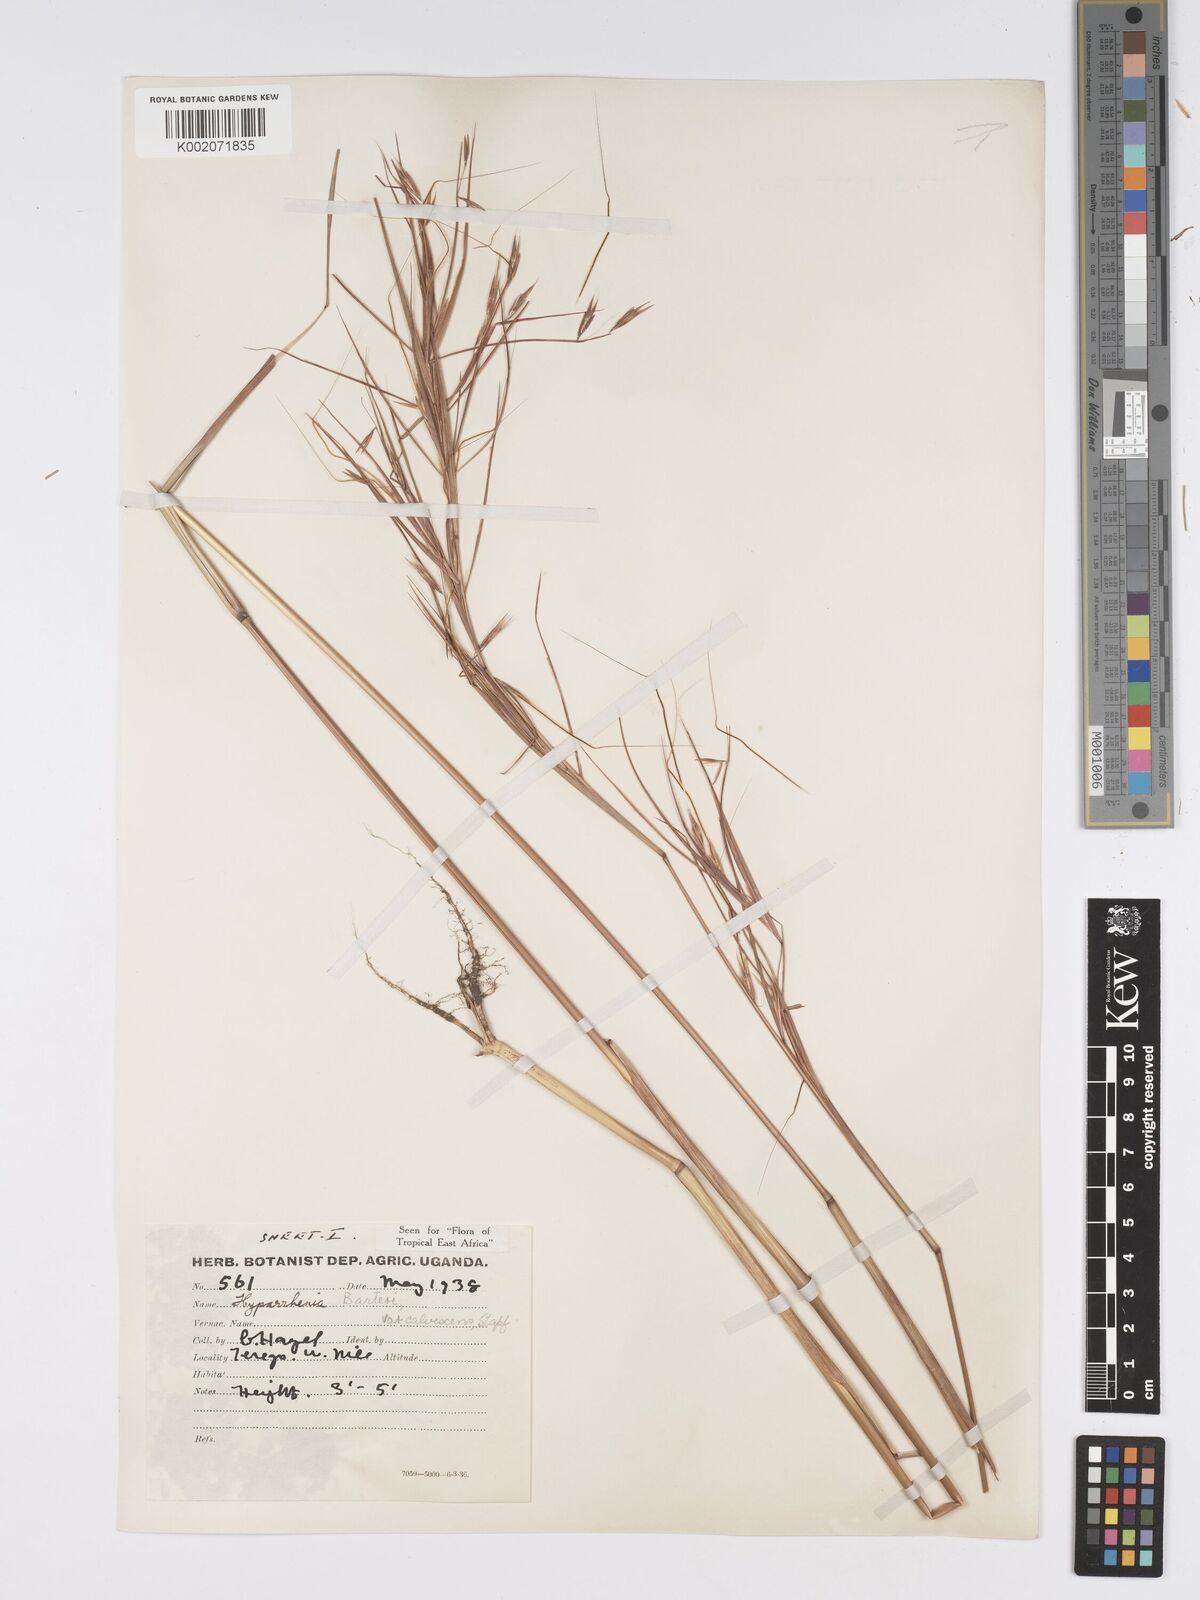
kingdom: Plantae
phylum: Tracheophyta
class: Liliopsida
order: Poales
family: Poaceae
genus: Hyparrhenia
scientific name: Hyparrhenia figariana
